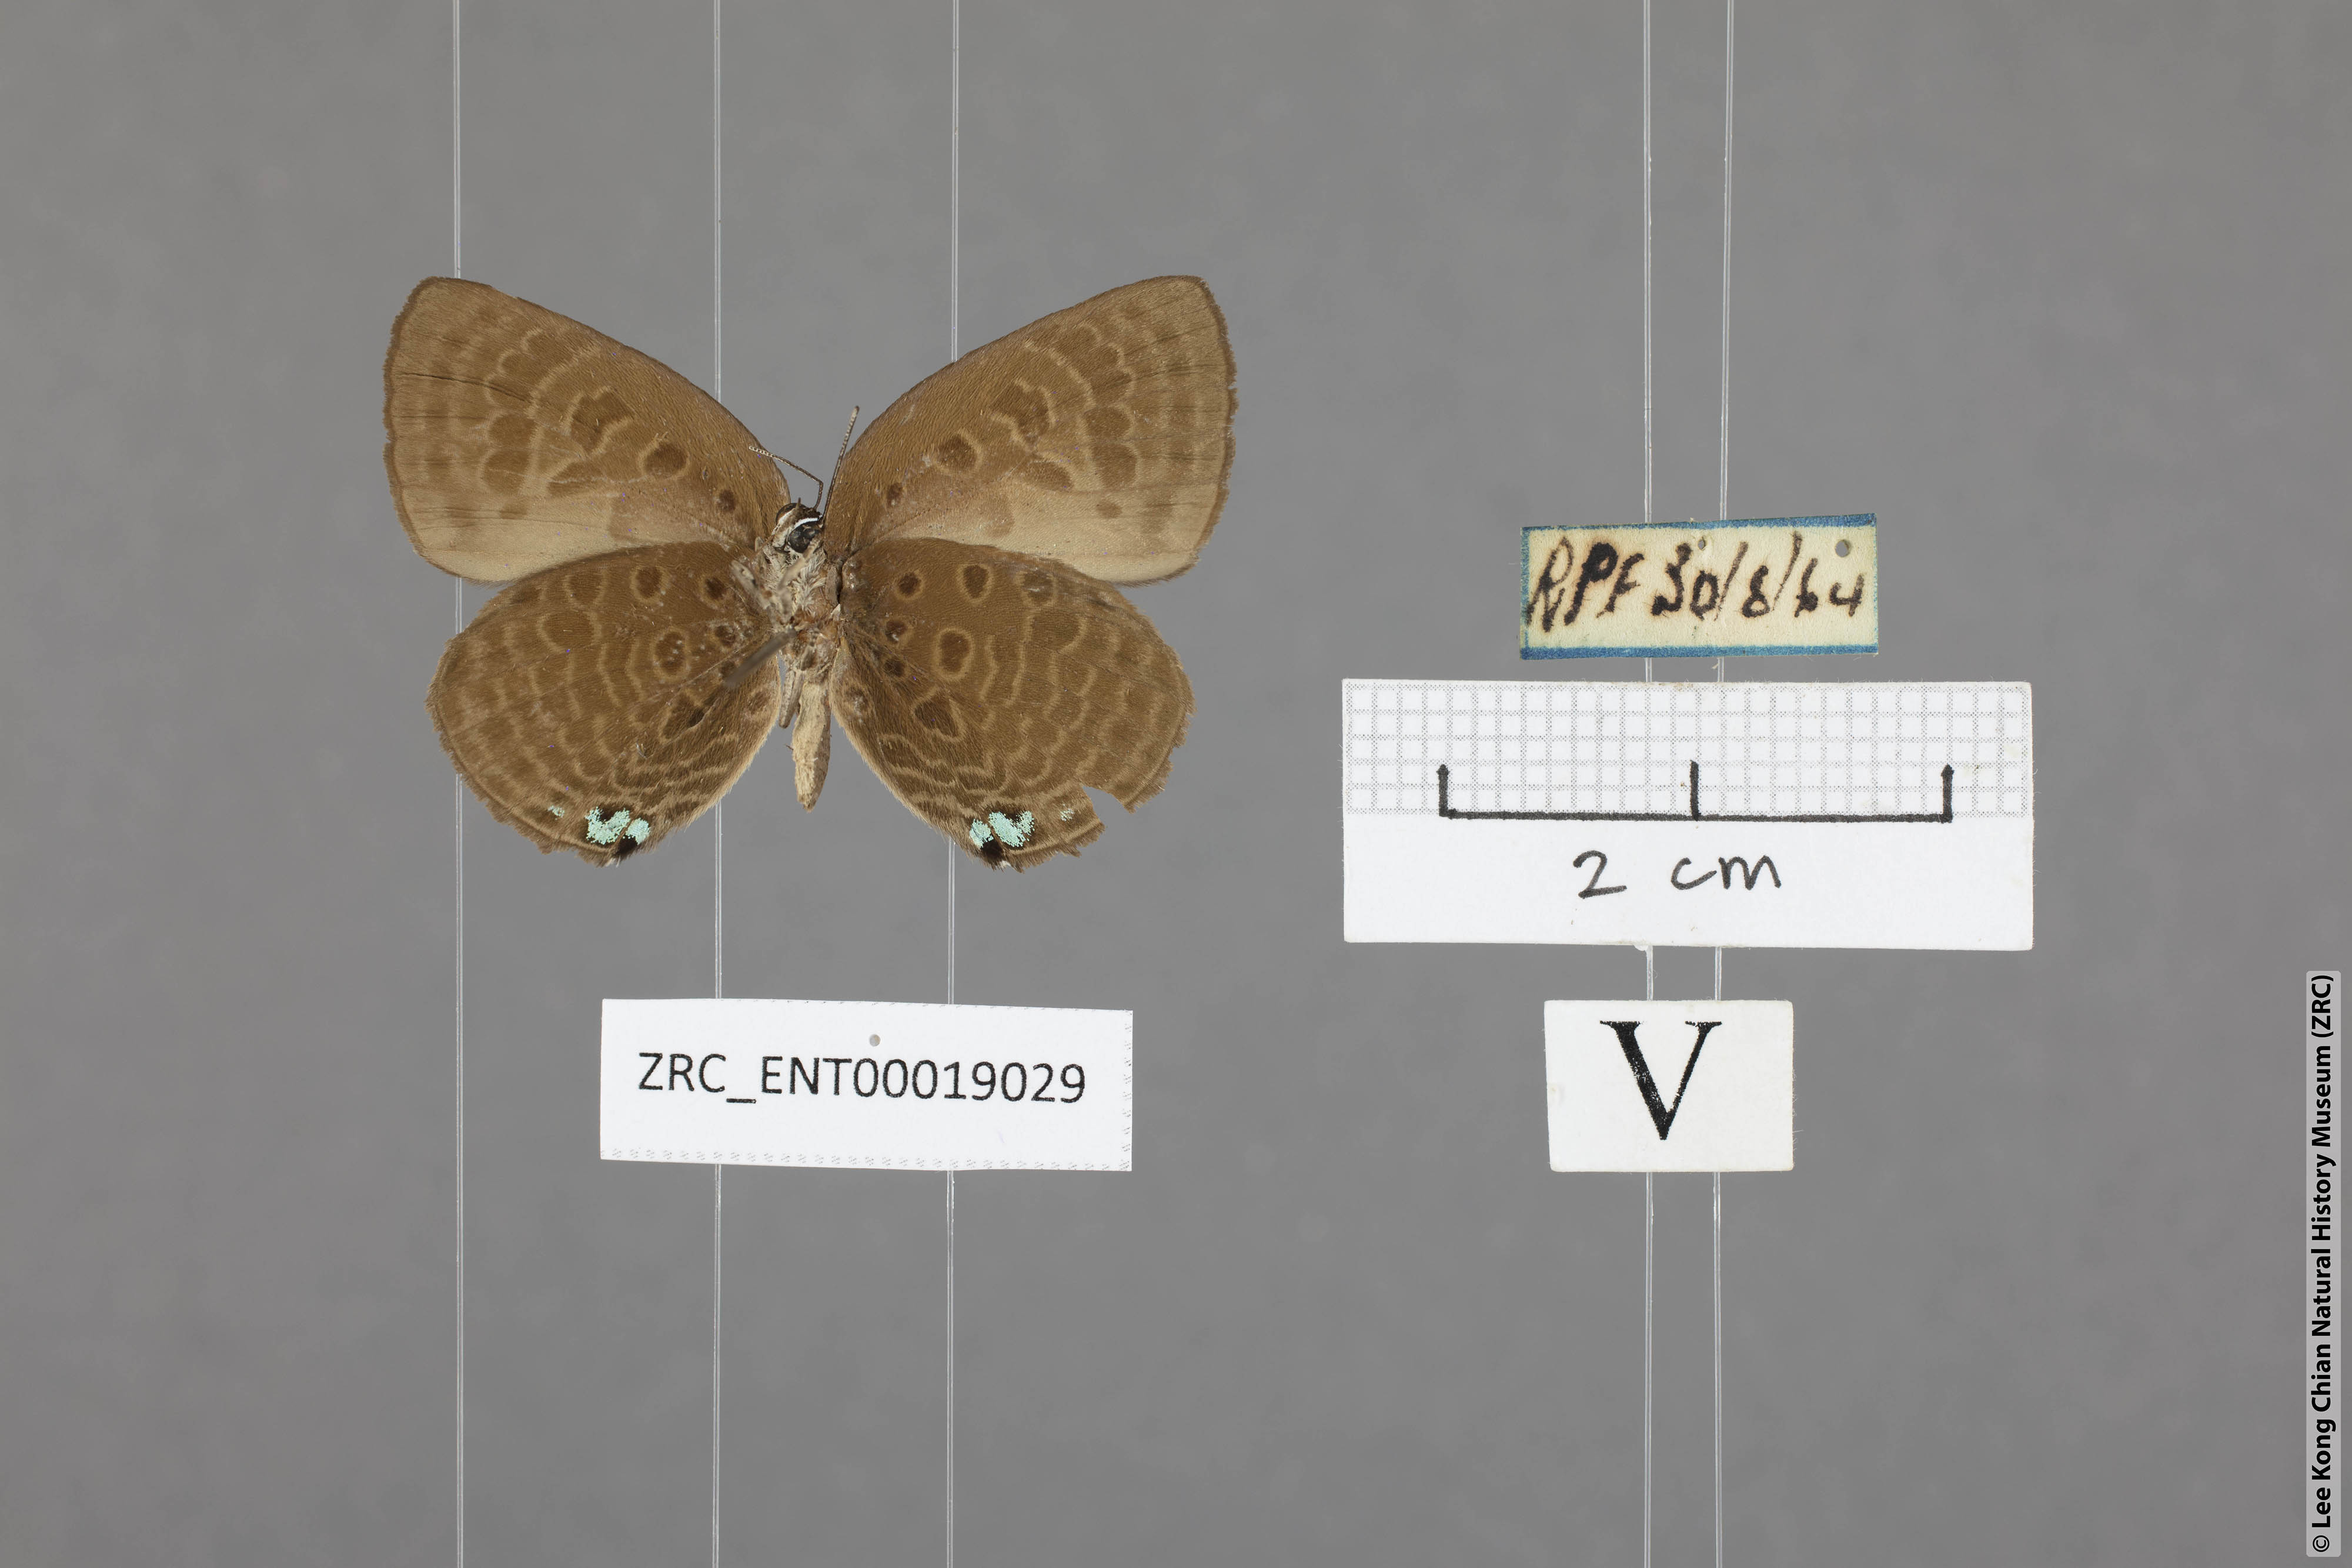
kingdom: Animalia
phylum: Arthropoda
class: Insecta
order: Lepidoptera
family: Lycaenidae
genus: Arhopala
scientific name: Arhopala agesilaus
